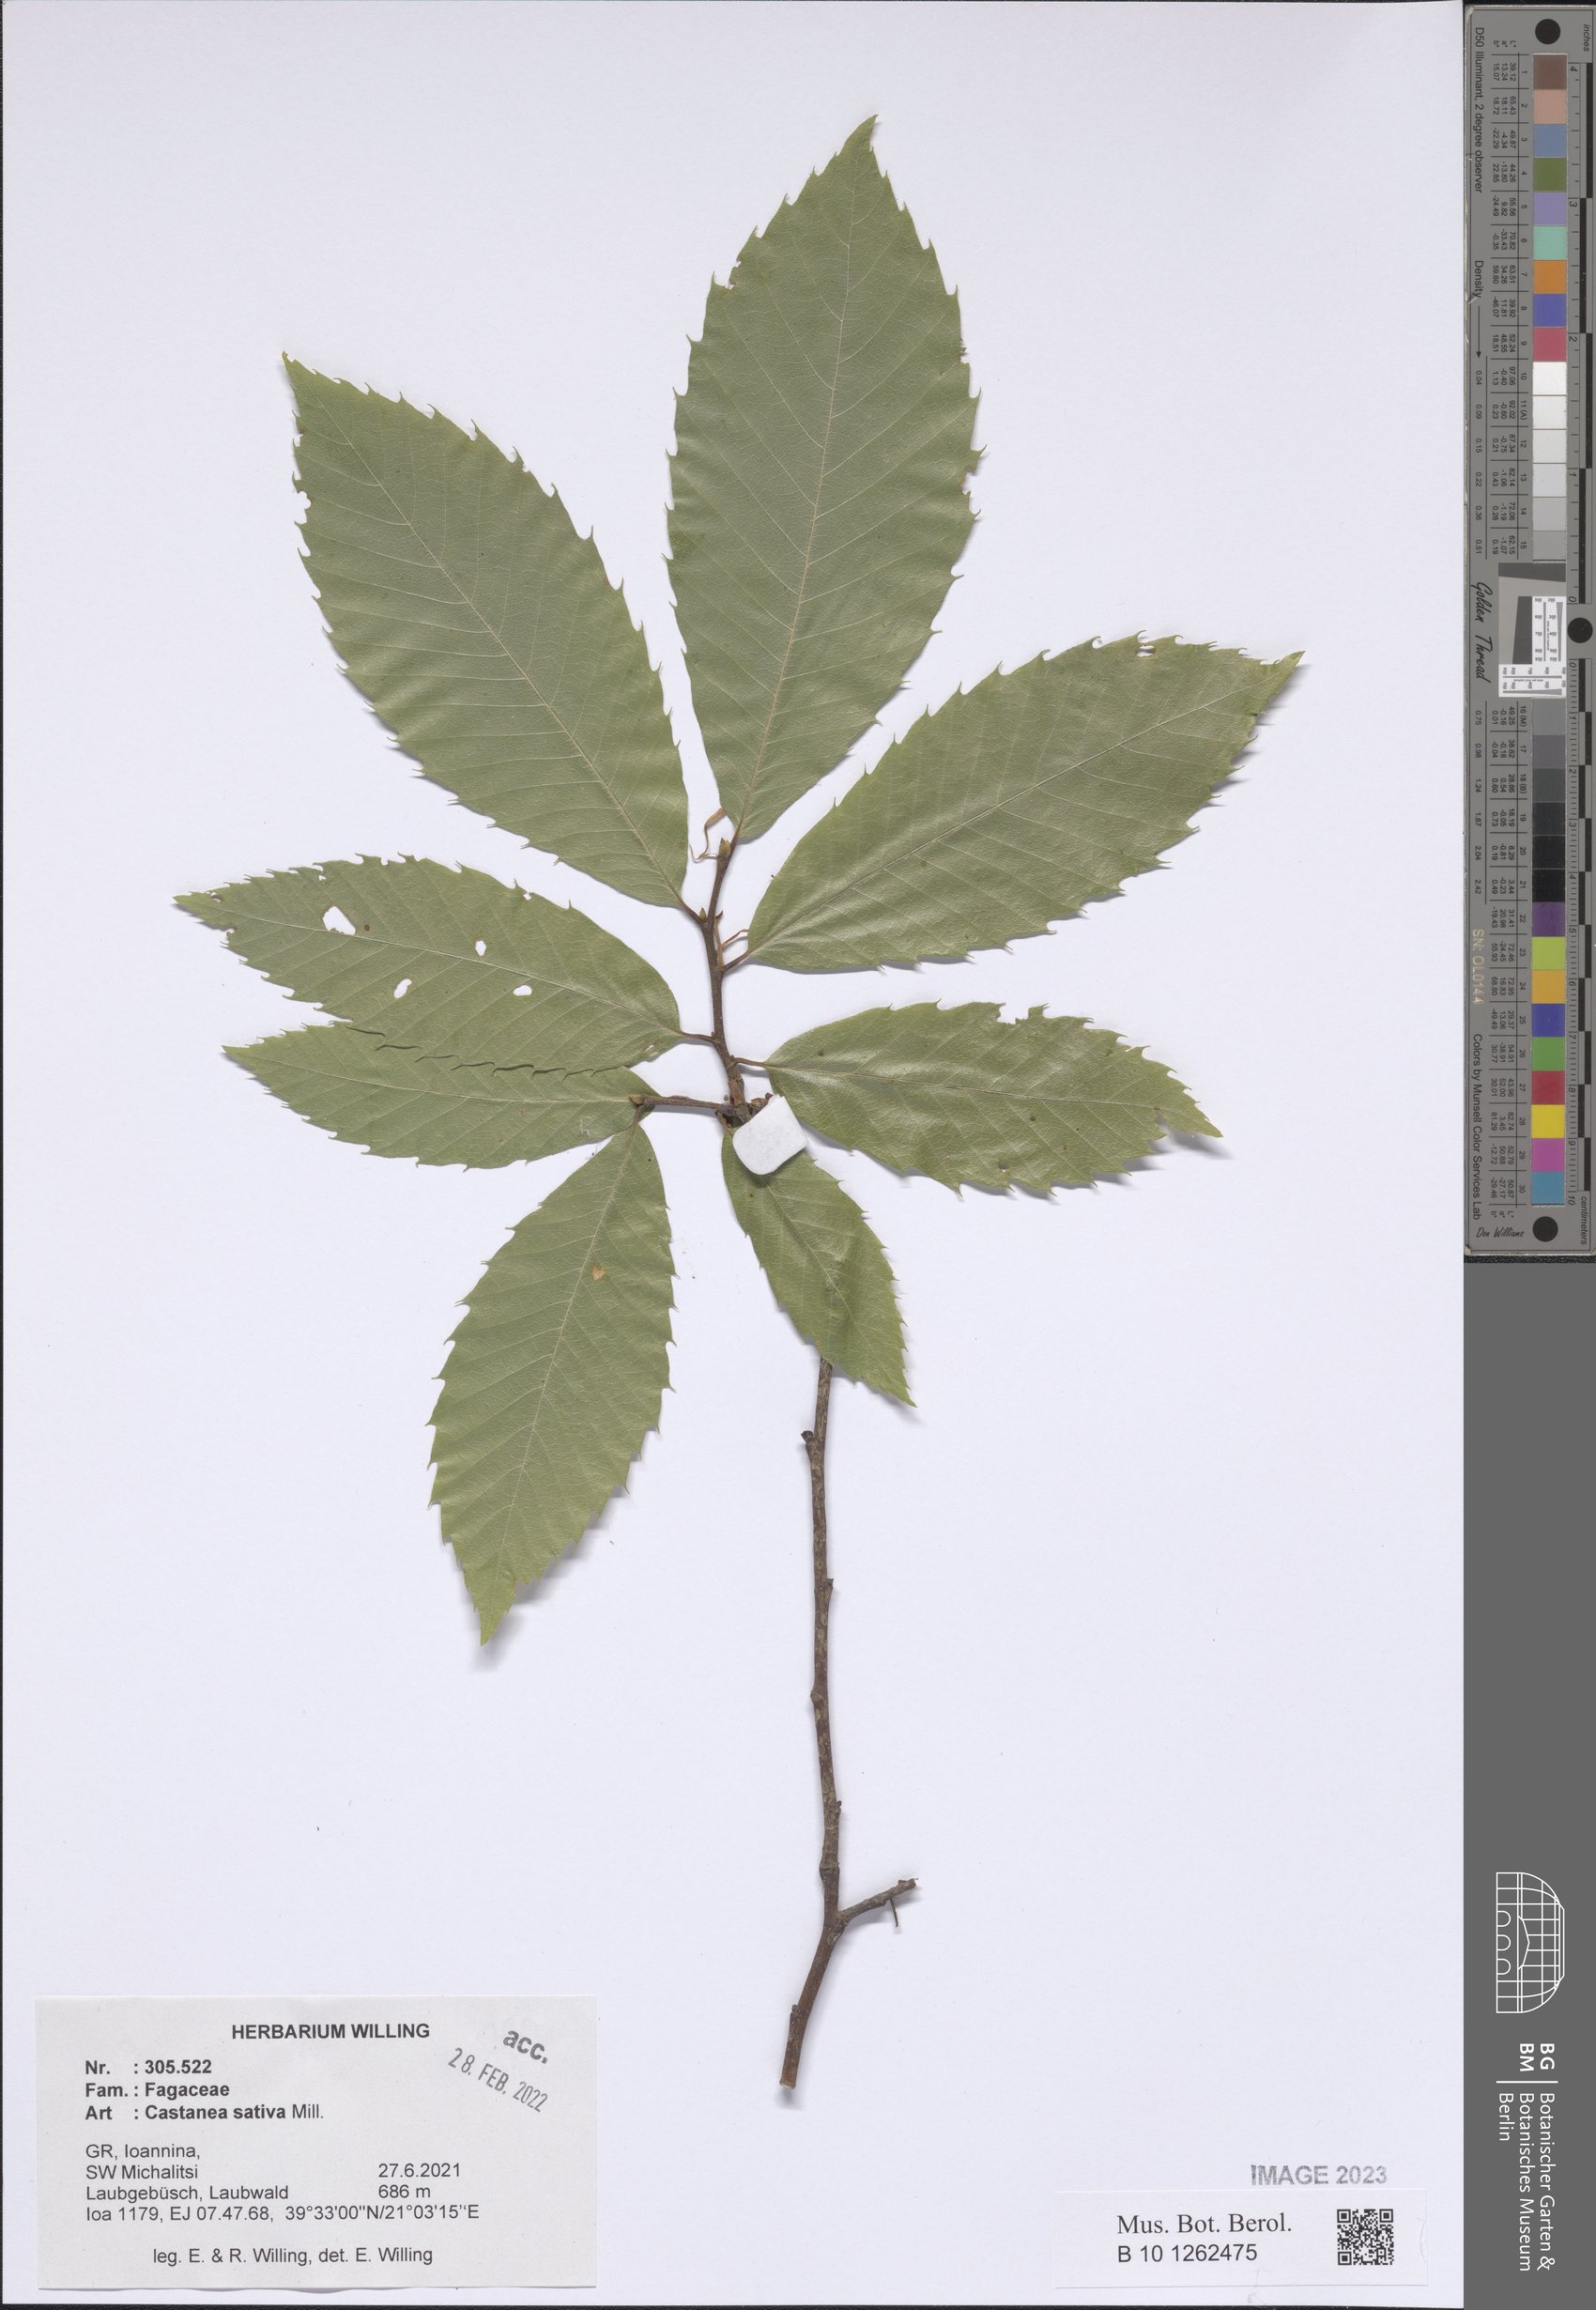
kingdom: Plantae
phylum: Tracheophyta
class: Magnoliopsida
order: Fagales
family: Fagaceae
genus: Castanea
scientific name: Castanea sativa
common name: Sweet chestnut
